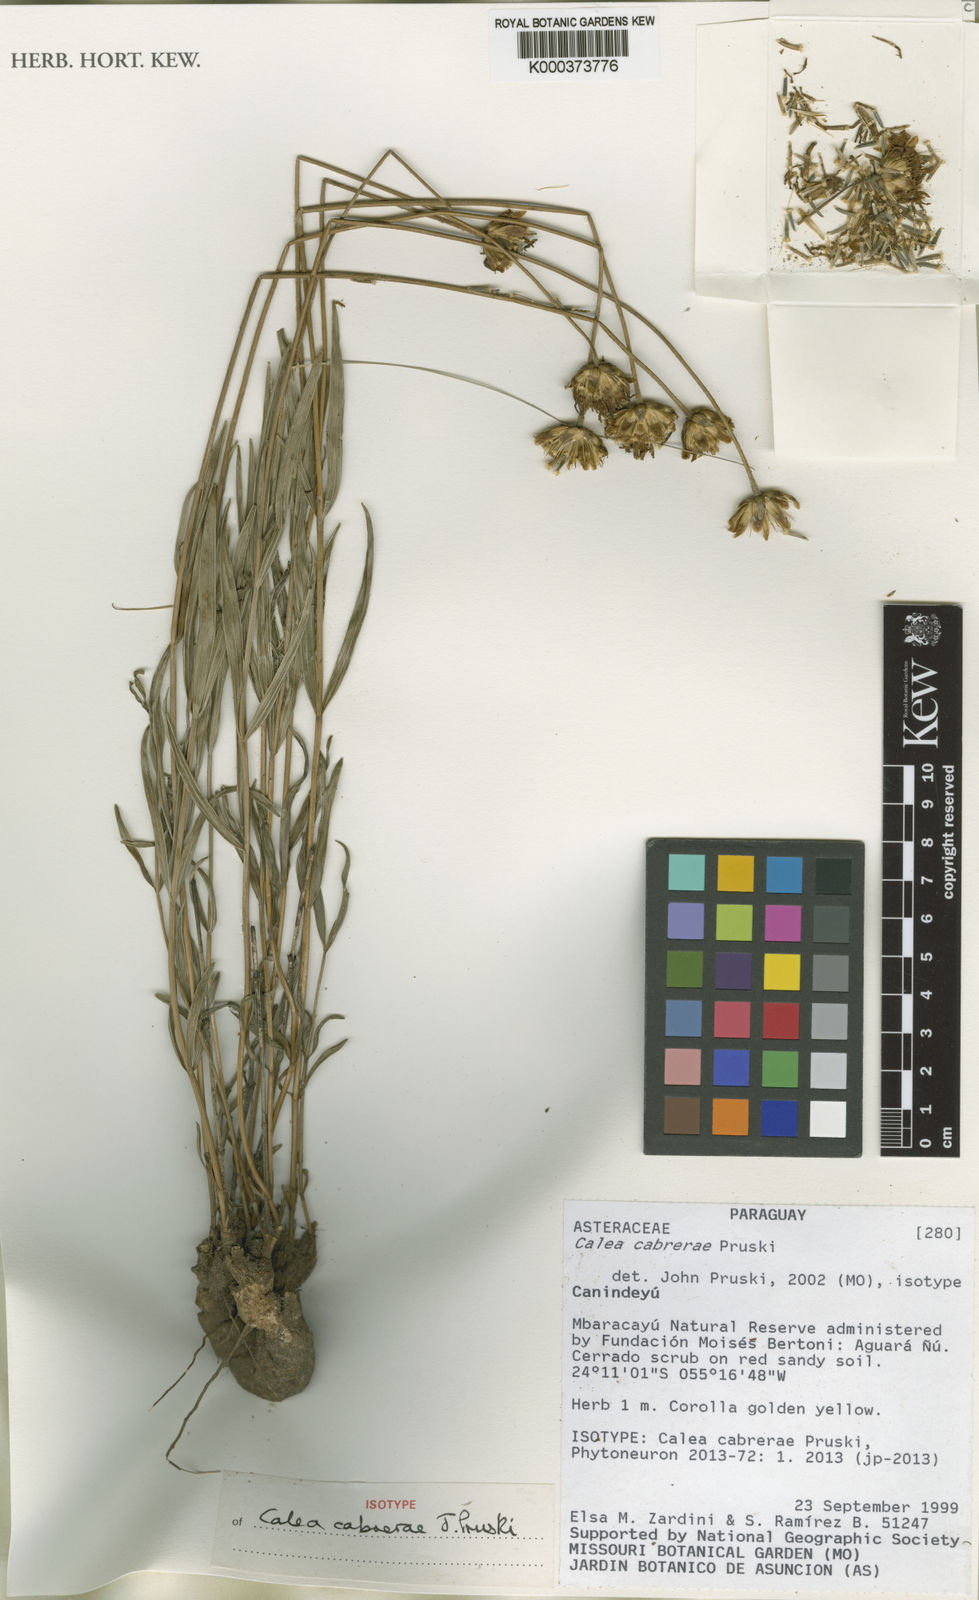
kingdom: Plantae
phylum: Tracheophyta
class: Magnoliopsida
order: Asterales
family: Asteraceae
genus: Calea
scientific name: Calea cabrerae
